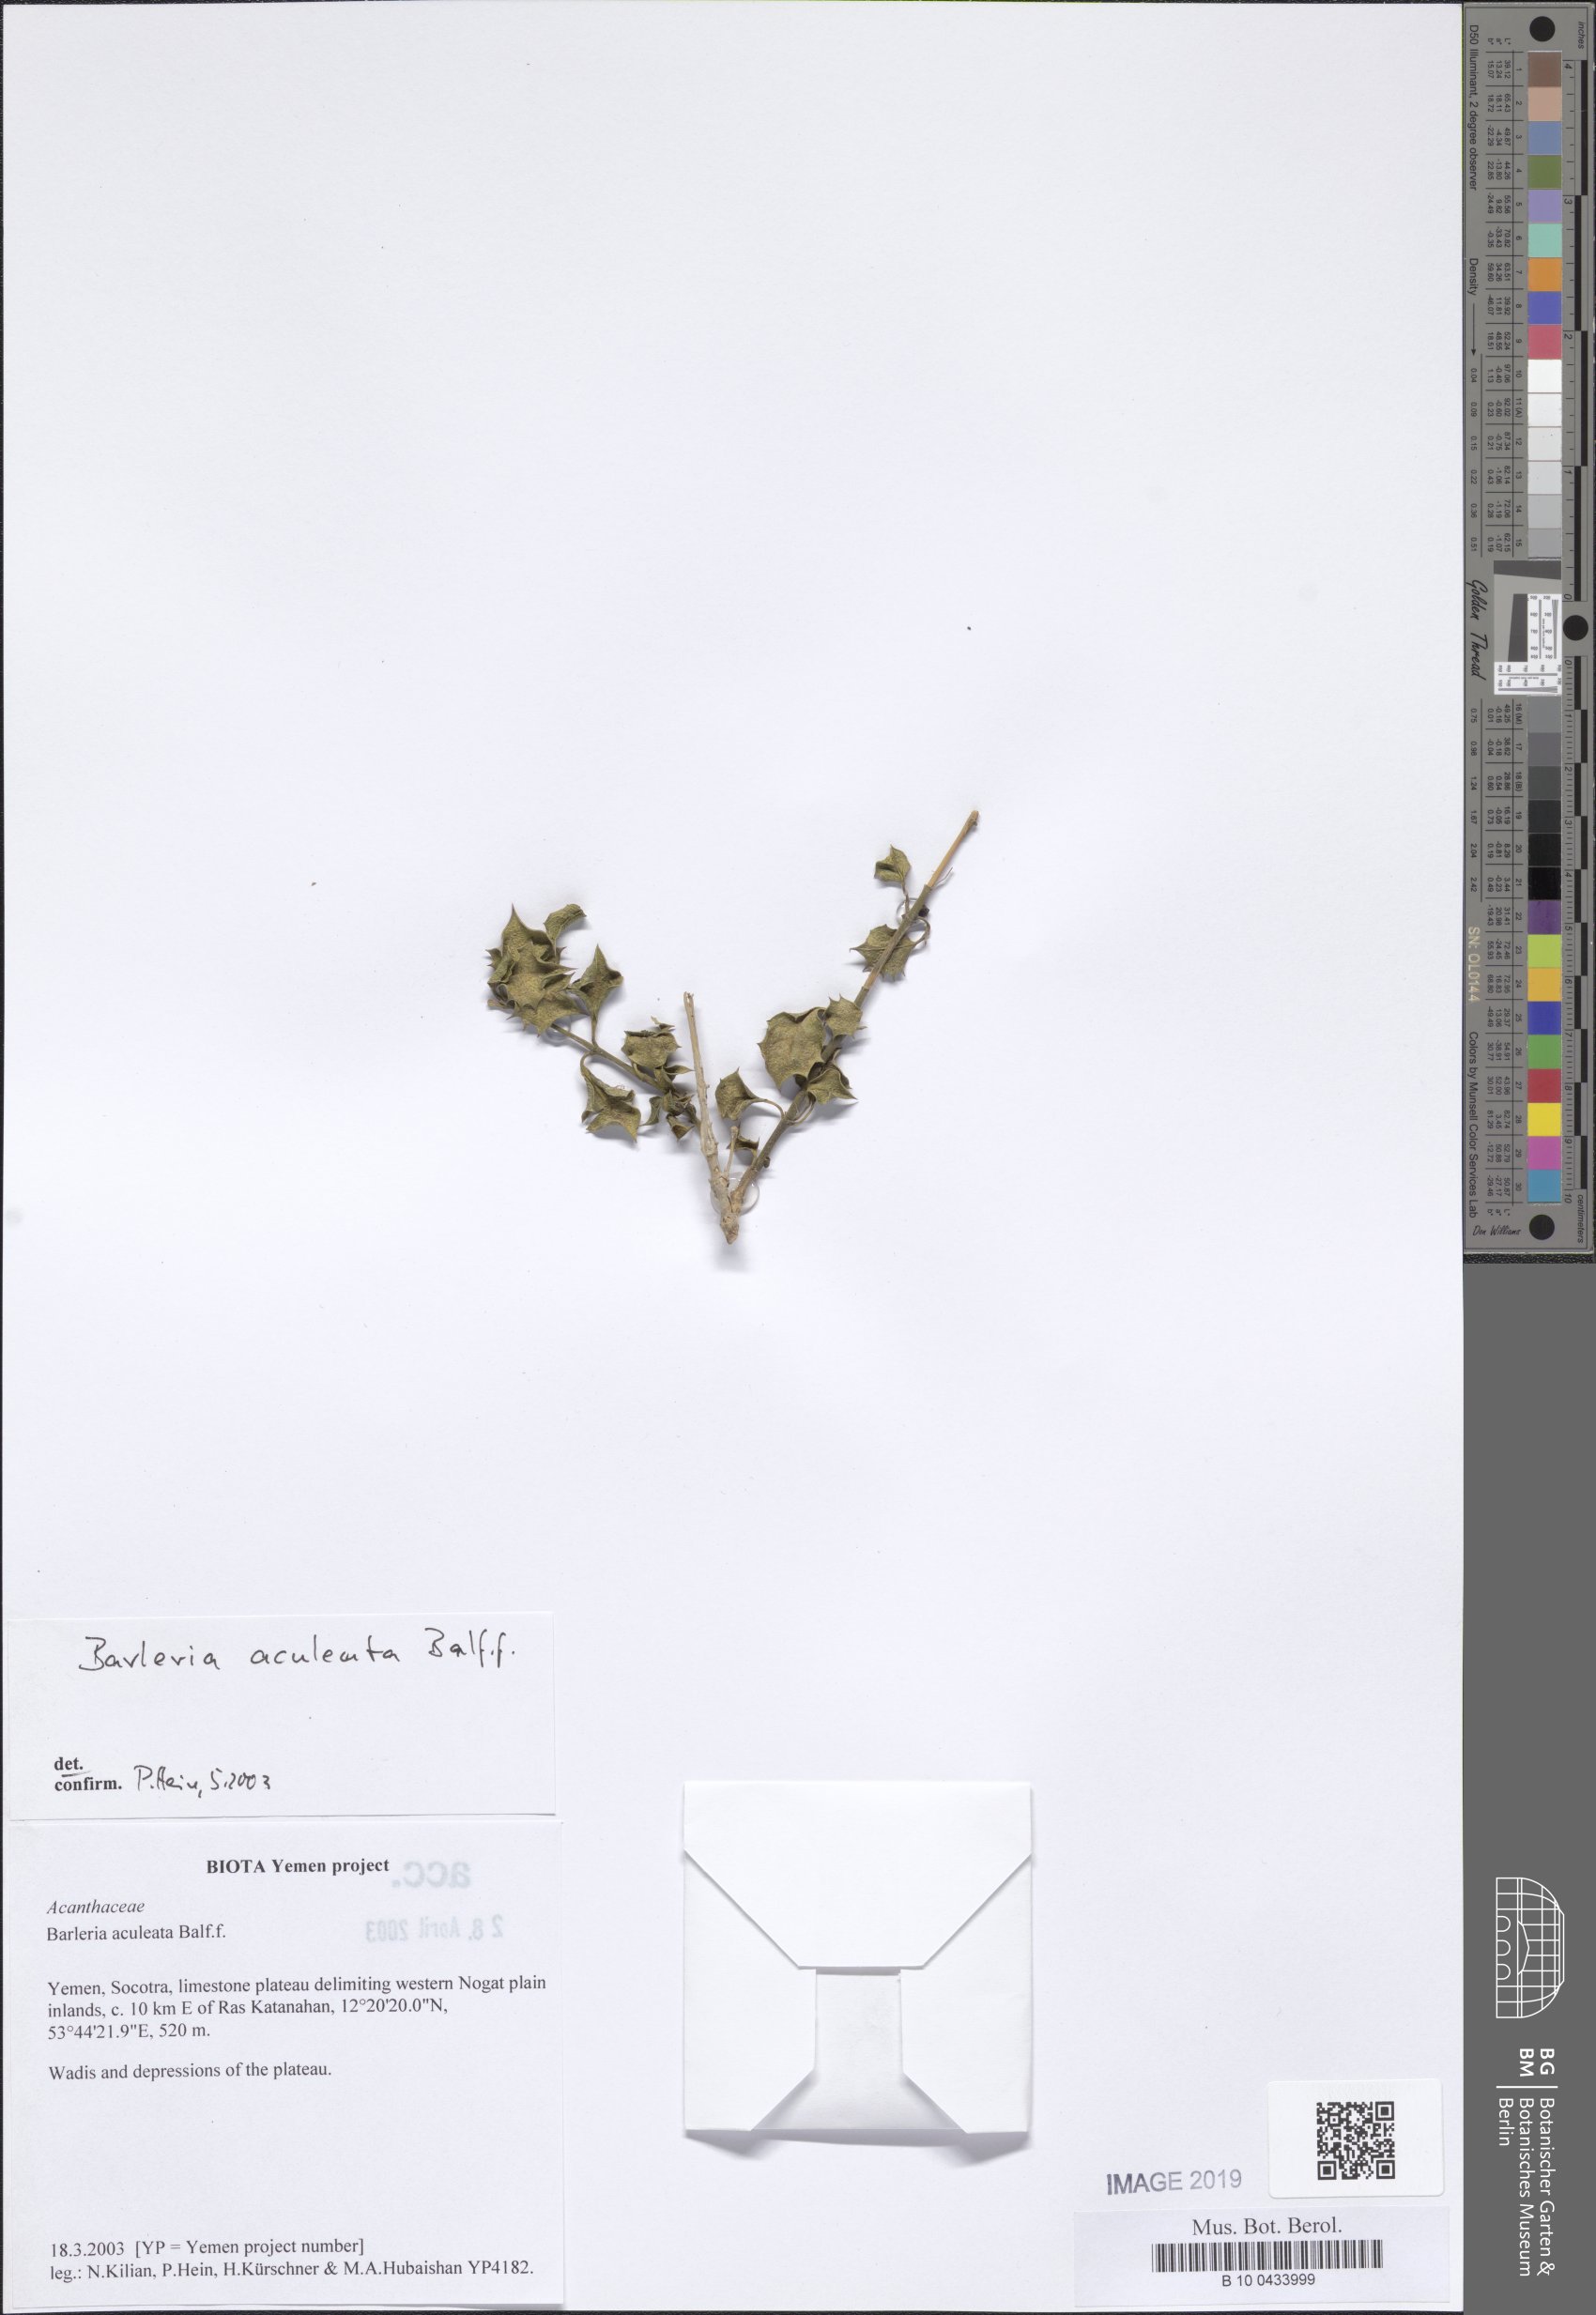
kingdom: Plantae
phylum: Tracheophyta
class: Magnoliopsida
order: Lamiales
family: Acanthaceae
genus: Barleria
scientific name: Barleria aculeata
